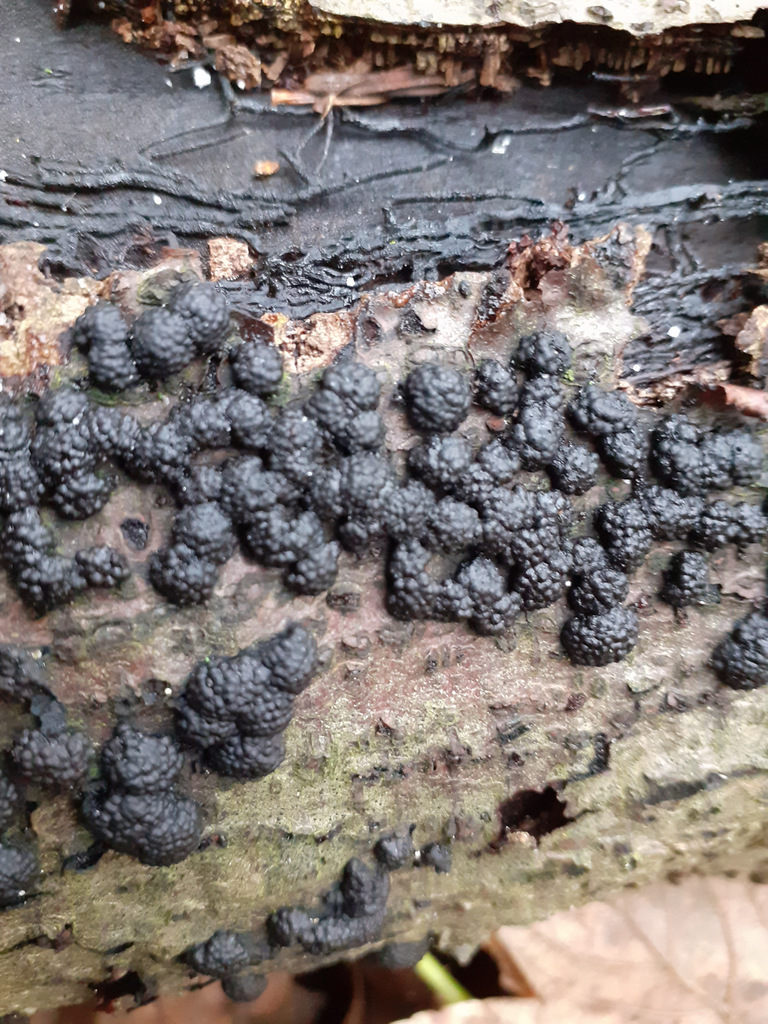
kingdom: Fungi
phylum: Ascomycota
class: Sordariomycetes
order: Xylariales
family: Hypoxylaceae
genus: Jackrogersella
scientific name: Jackrogersella cohaerens
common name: sammenflydende kulbær
